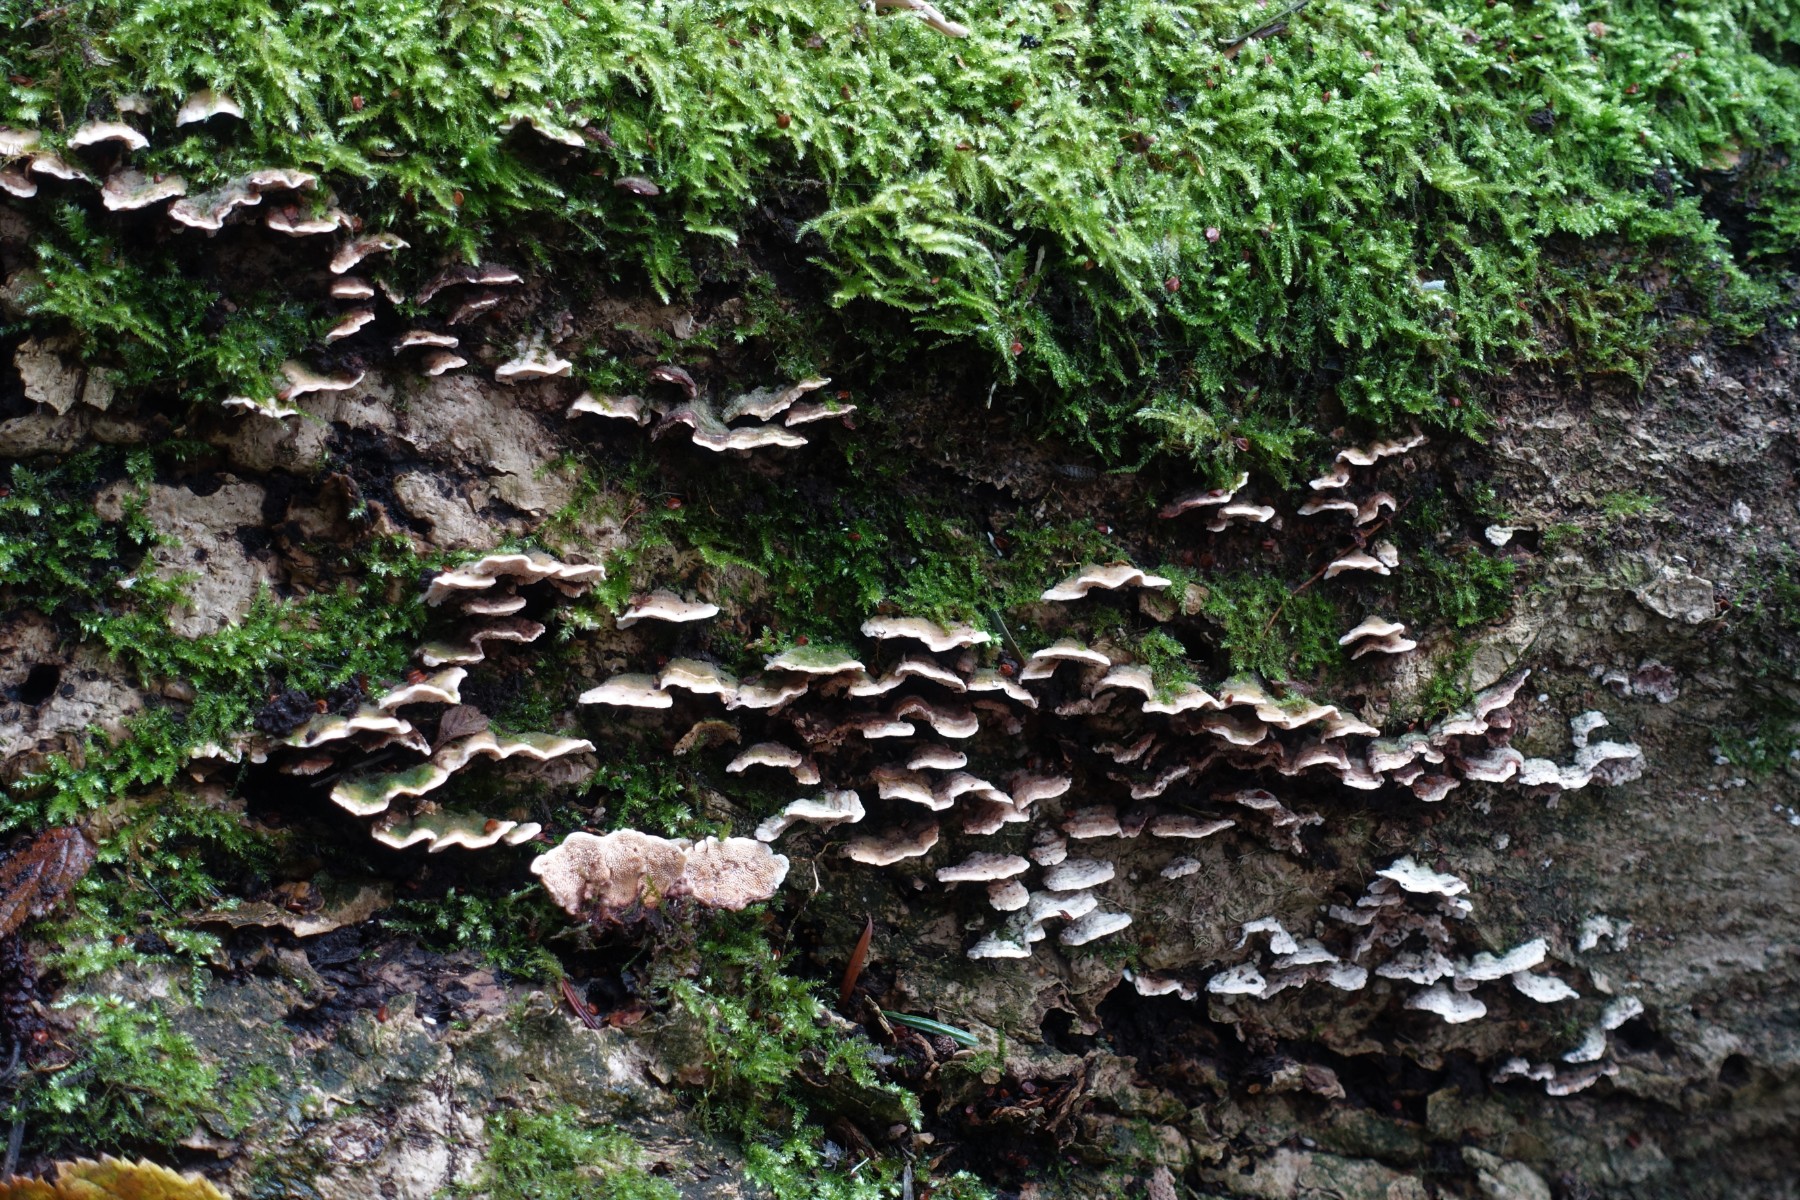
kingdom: Fungi
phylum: Basidiomycota
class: Agaricomycetes
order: Polyporales
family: Steccherinaceae
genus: Steccherinum
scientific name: Steccherinum bourdotii
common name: hat-skønpig
